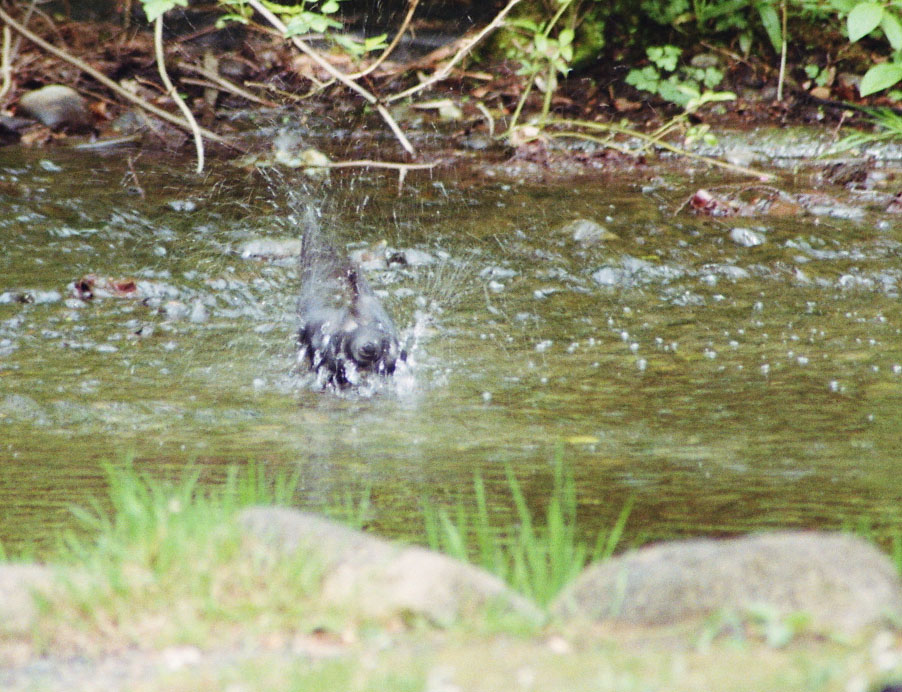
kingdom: Animalia
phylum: Chordata
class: Aves
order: Passeriformes
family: Corvidae
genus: Corvus
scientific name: Corvus brachyrhynchos
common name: American crow
